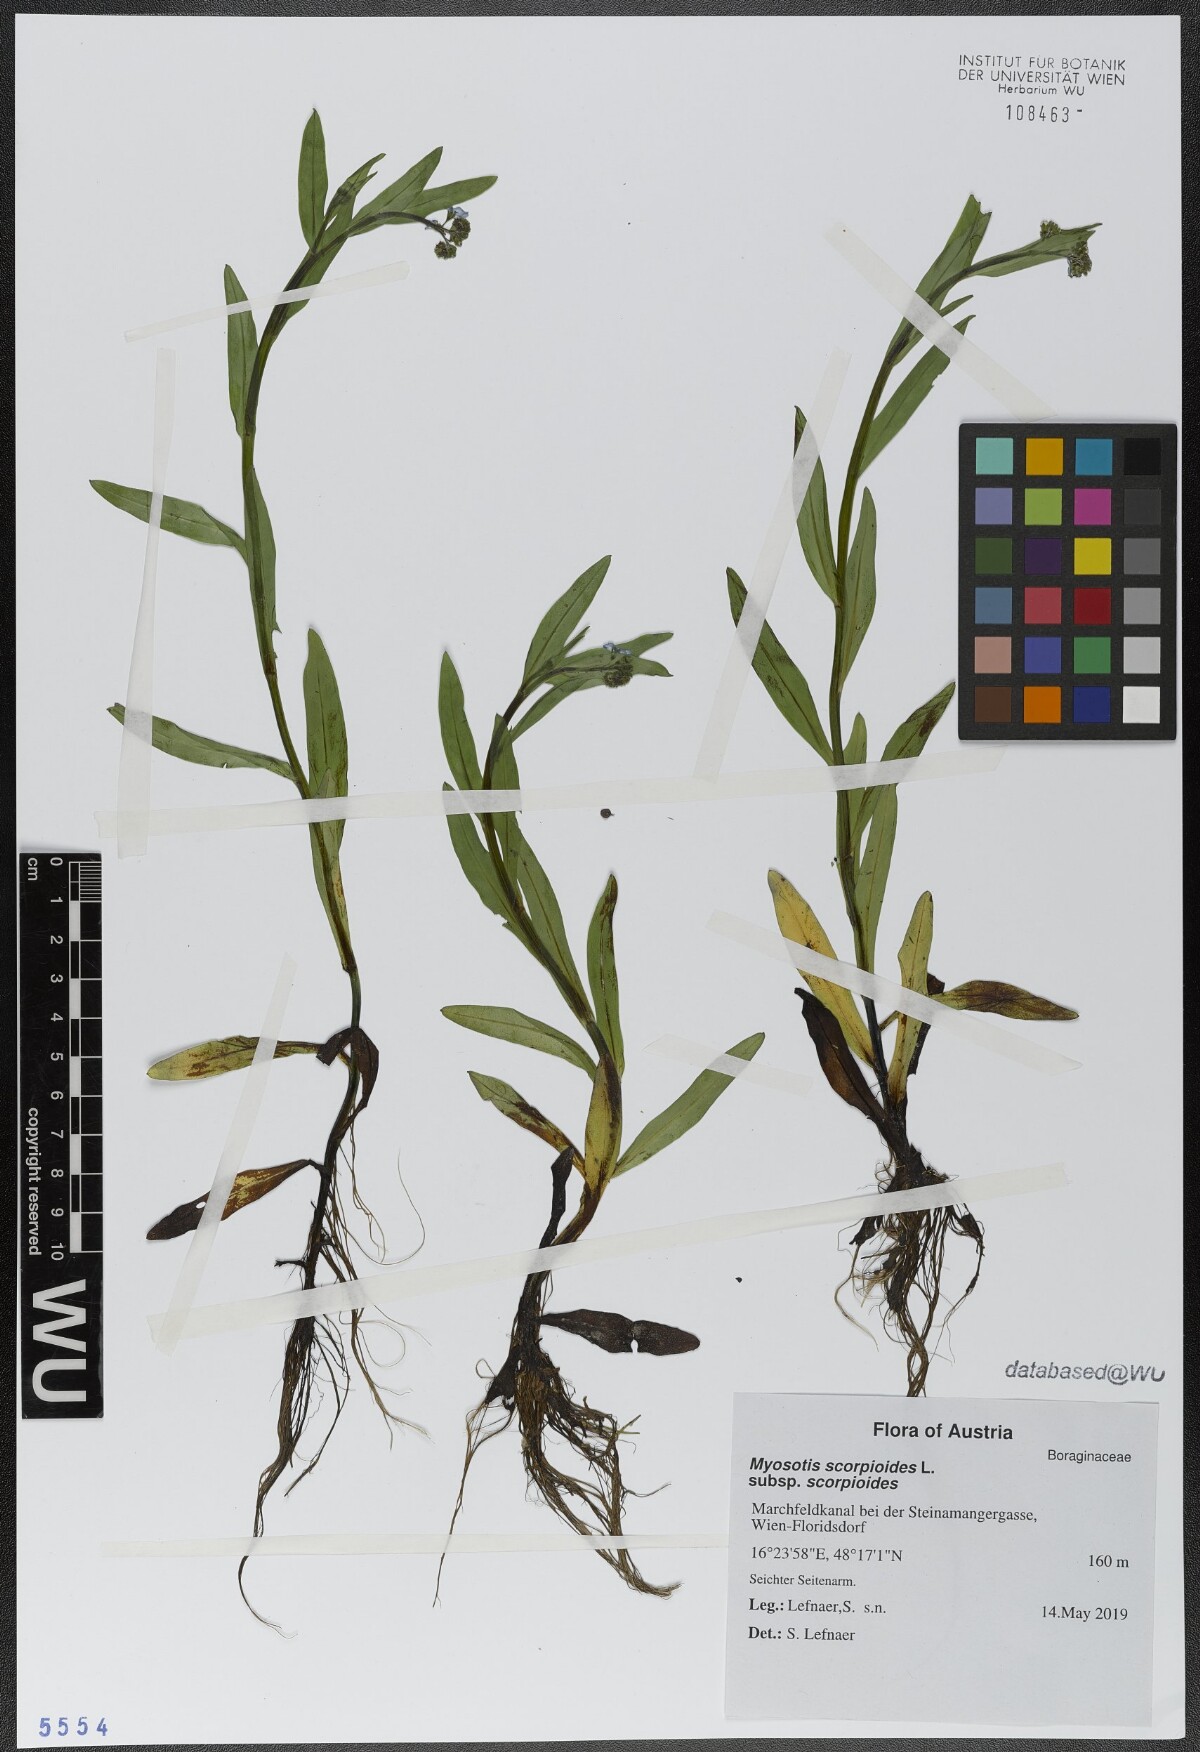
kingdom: Plantae
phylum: Tracheophyta
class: Magnoliopsida
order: Boraginales
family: Boraginaceae
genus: Myosotis
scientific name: Myosotis scorpioides
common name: Water forget-me-not
